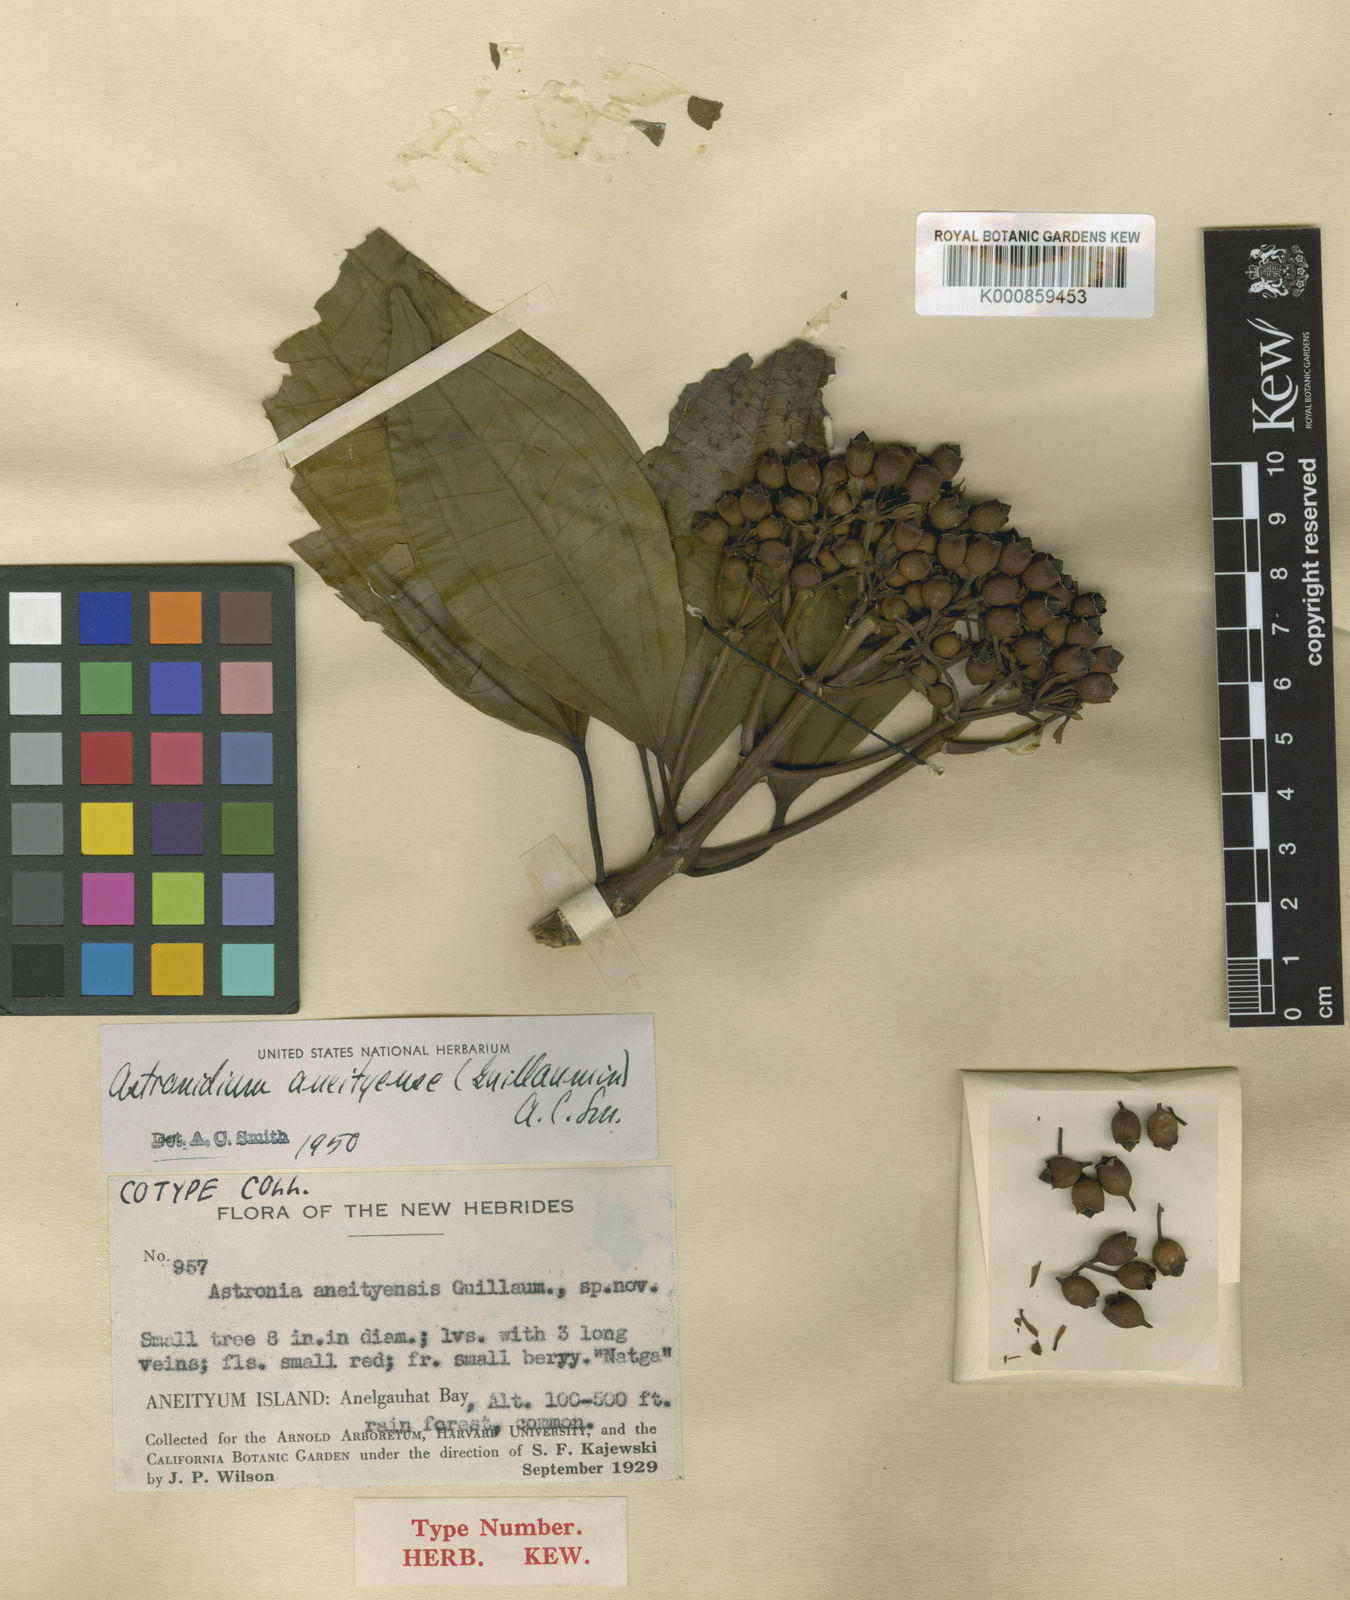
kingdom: Plantae
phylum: Tracheophyta
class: Magnoliopsida
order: Myrtales
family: Melastomataceae
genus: Astronidium
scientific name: Astronidium aneityense
